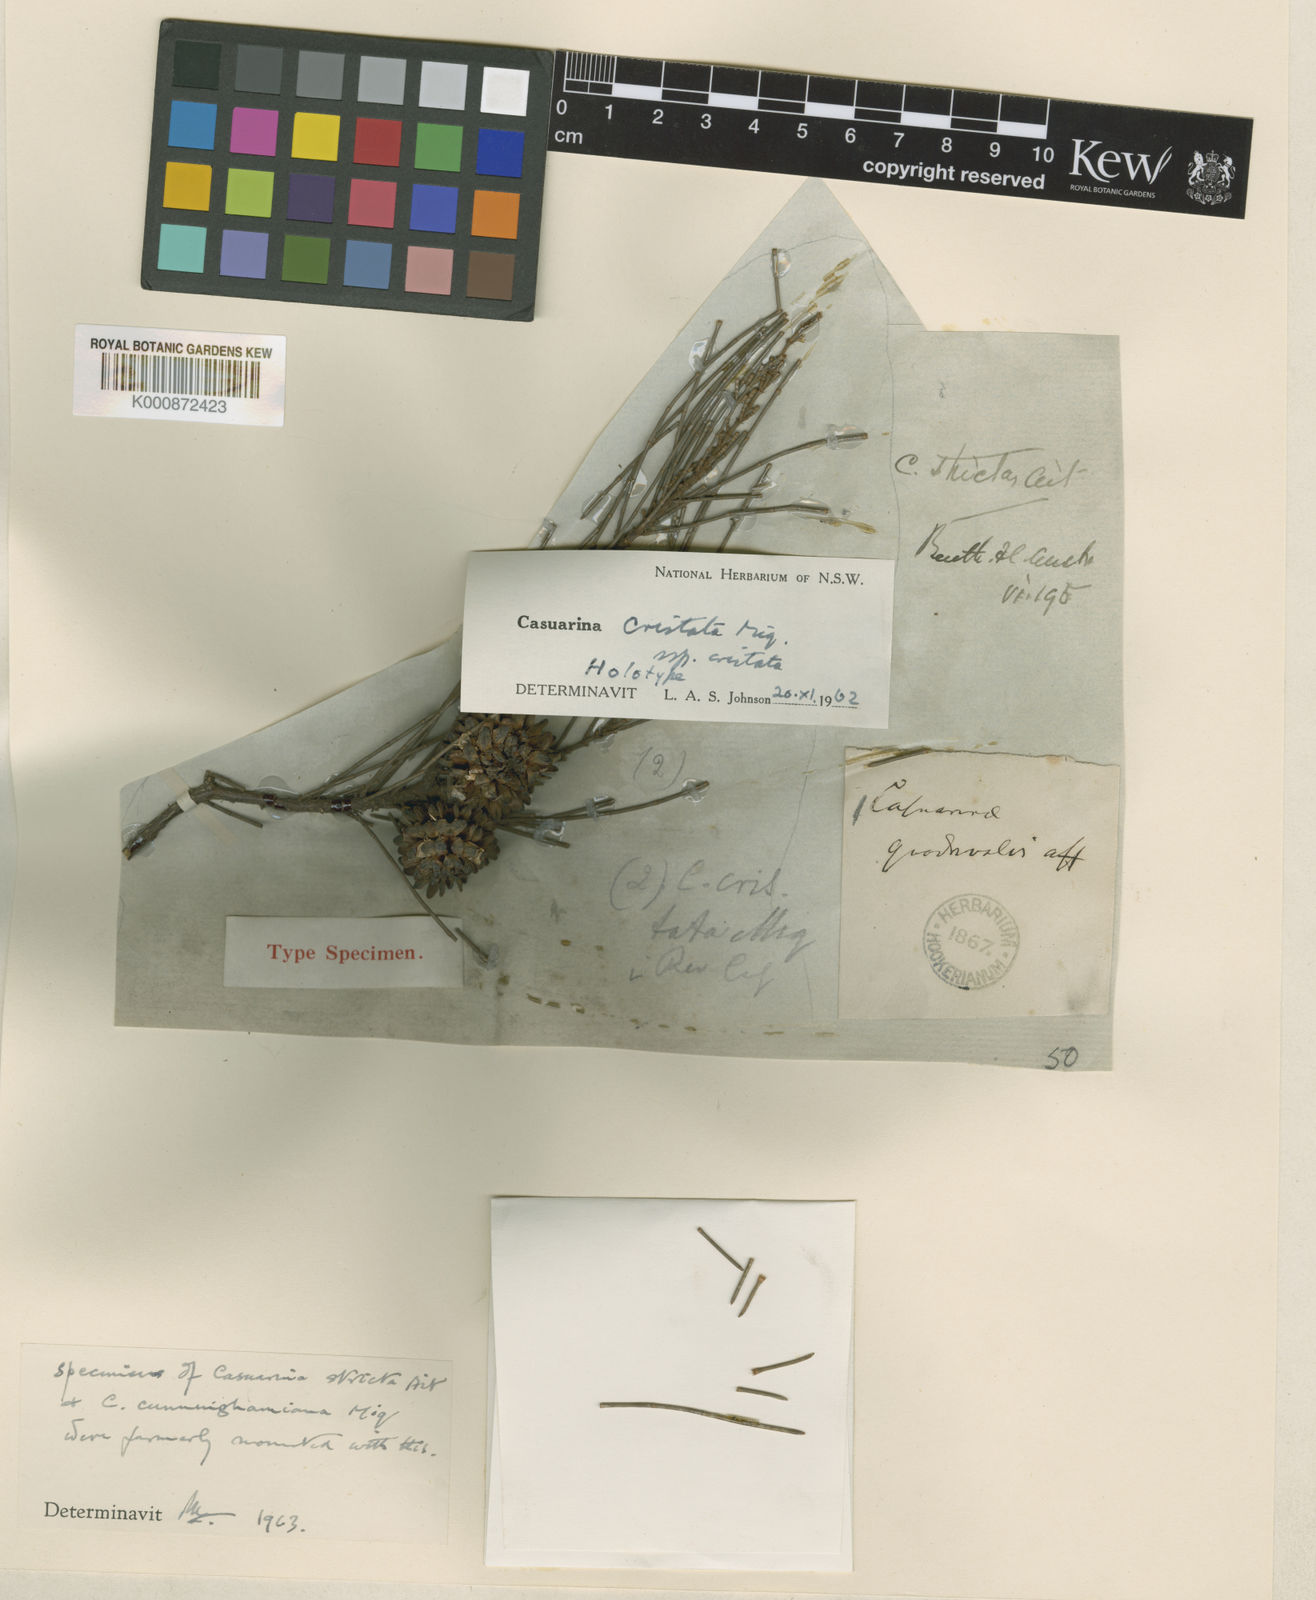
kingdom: Plantae
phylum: Tracheophyta
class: Magnoliopsida
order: Fagales
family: Casuarinaceae
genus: Casuarina
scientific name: Casuarina cristata
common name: Black-oak
